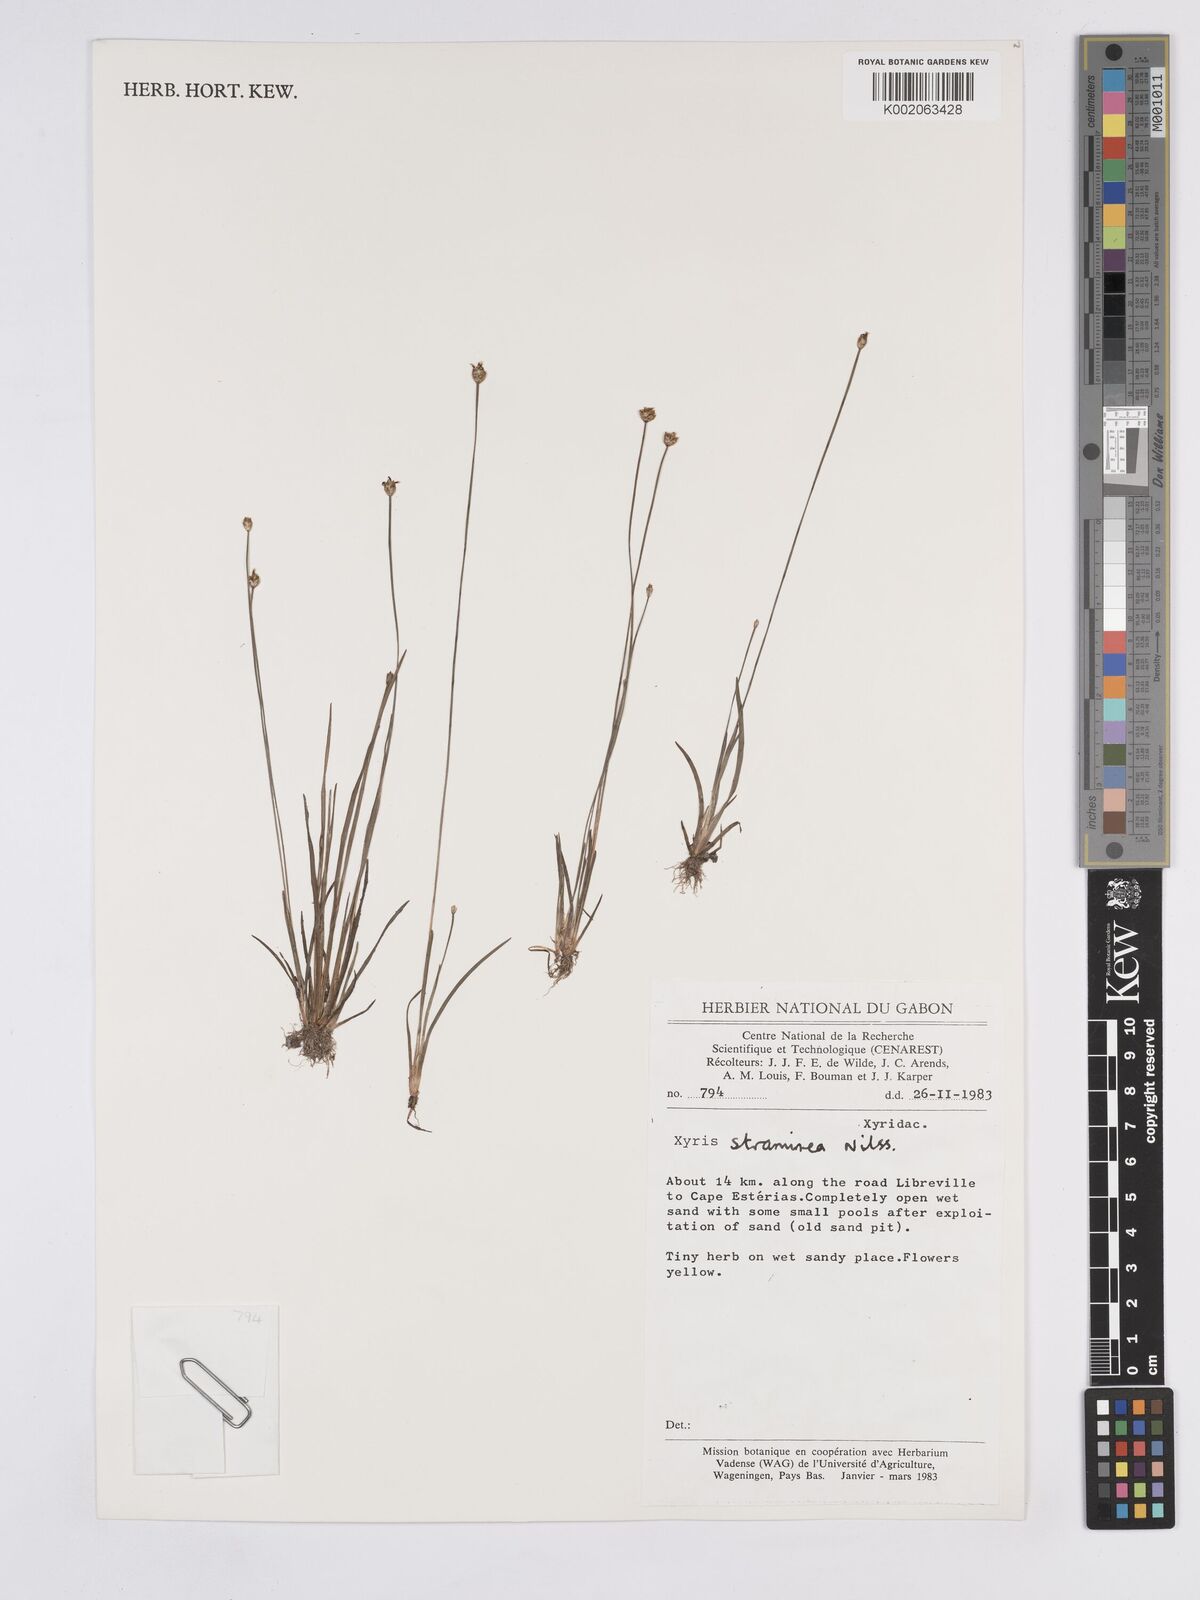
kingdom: Plantae
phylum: Tracheophyta
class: Liliopsida
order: Poales
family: Xyridaceae
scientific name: Xyridaceae
